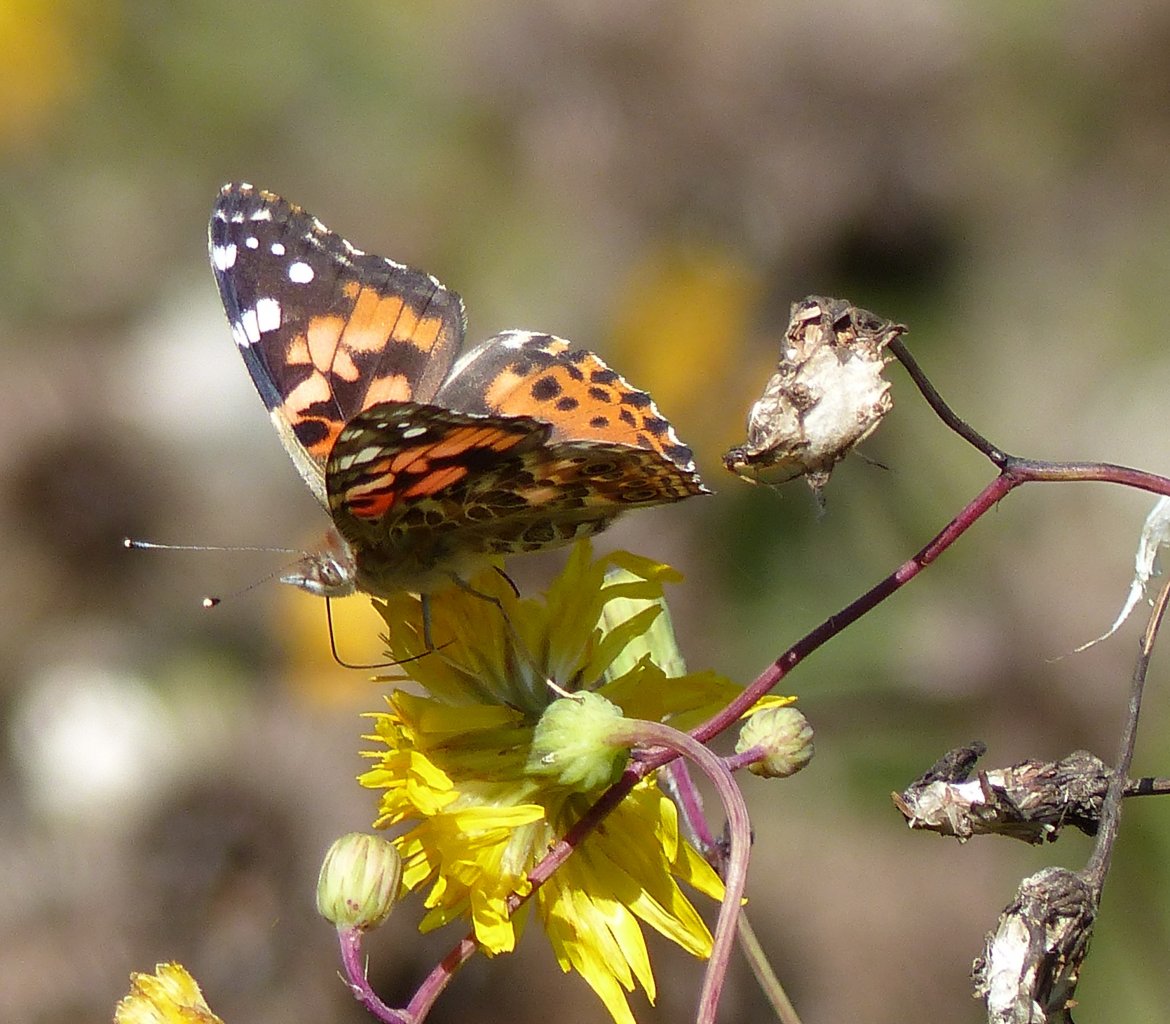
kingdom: Animalia
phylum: Arthropoda
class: Insecta
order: Lepidoptera
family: Nymphalidae
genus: Vanessa
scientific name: Vanessa cardui
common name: Painted Lady
